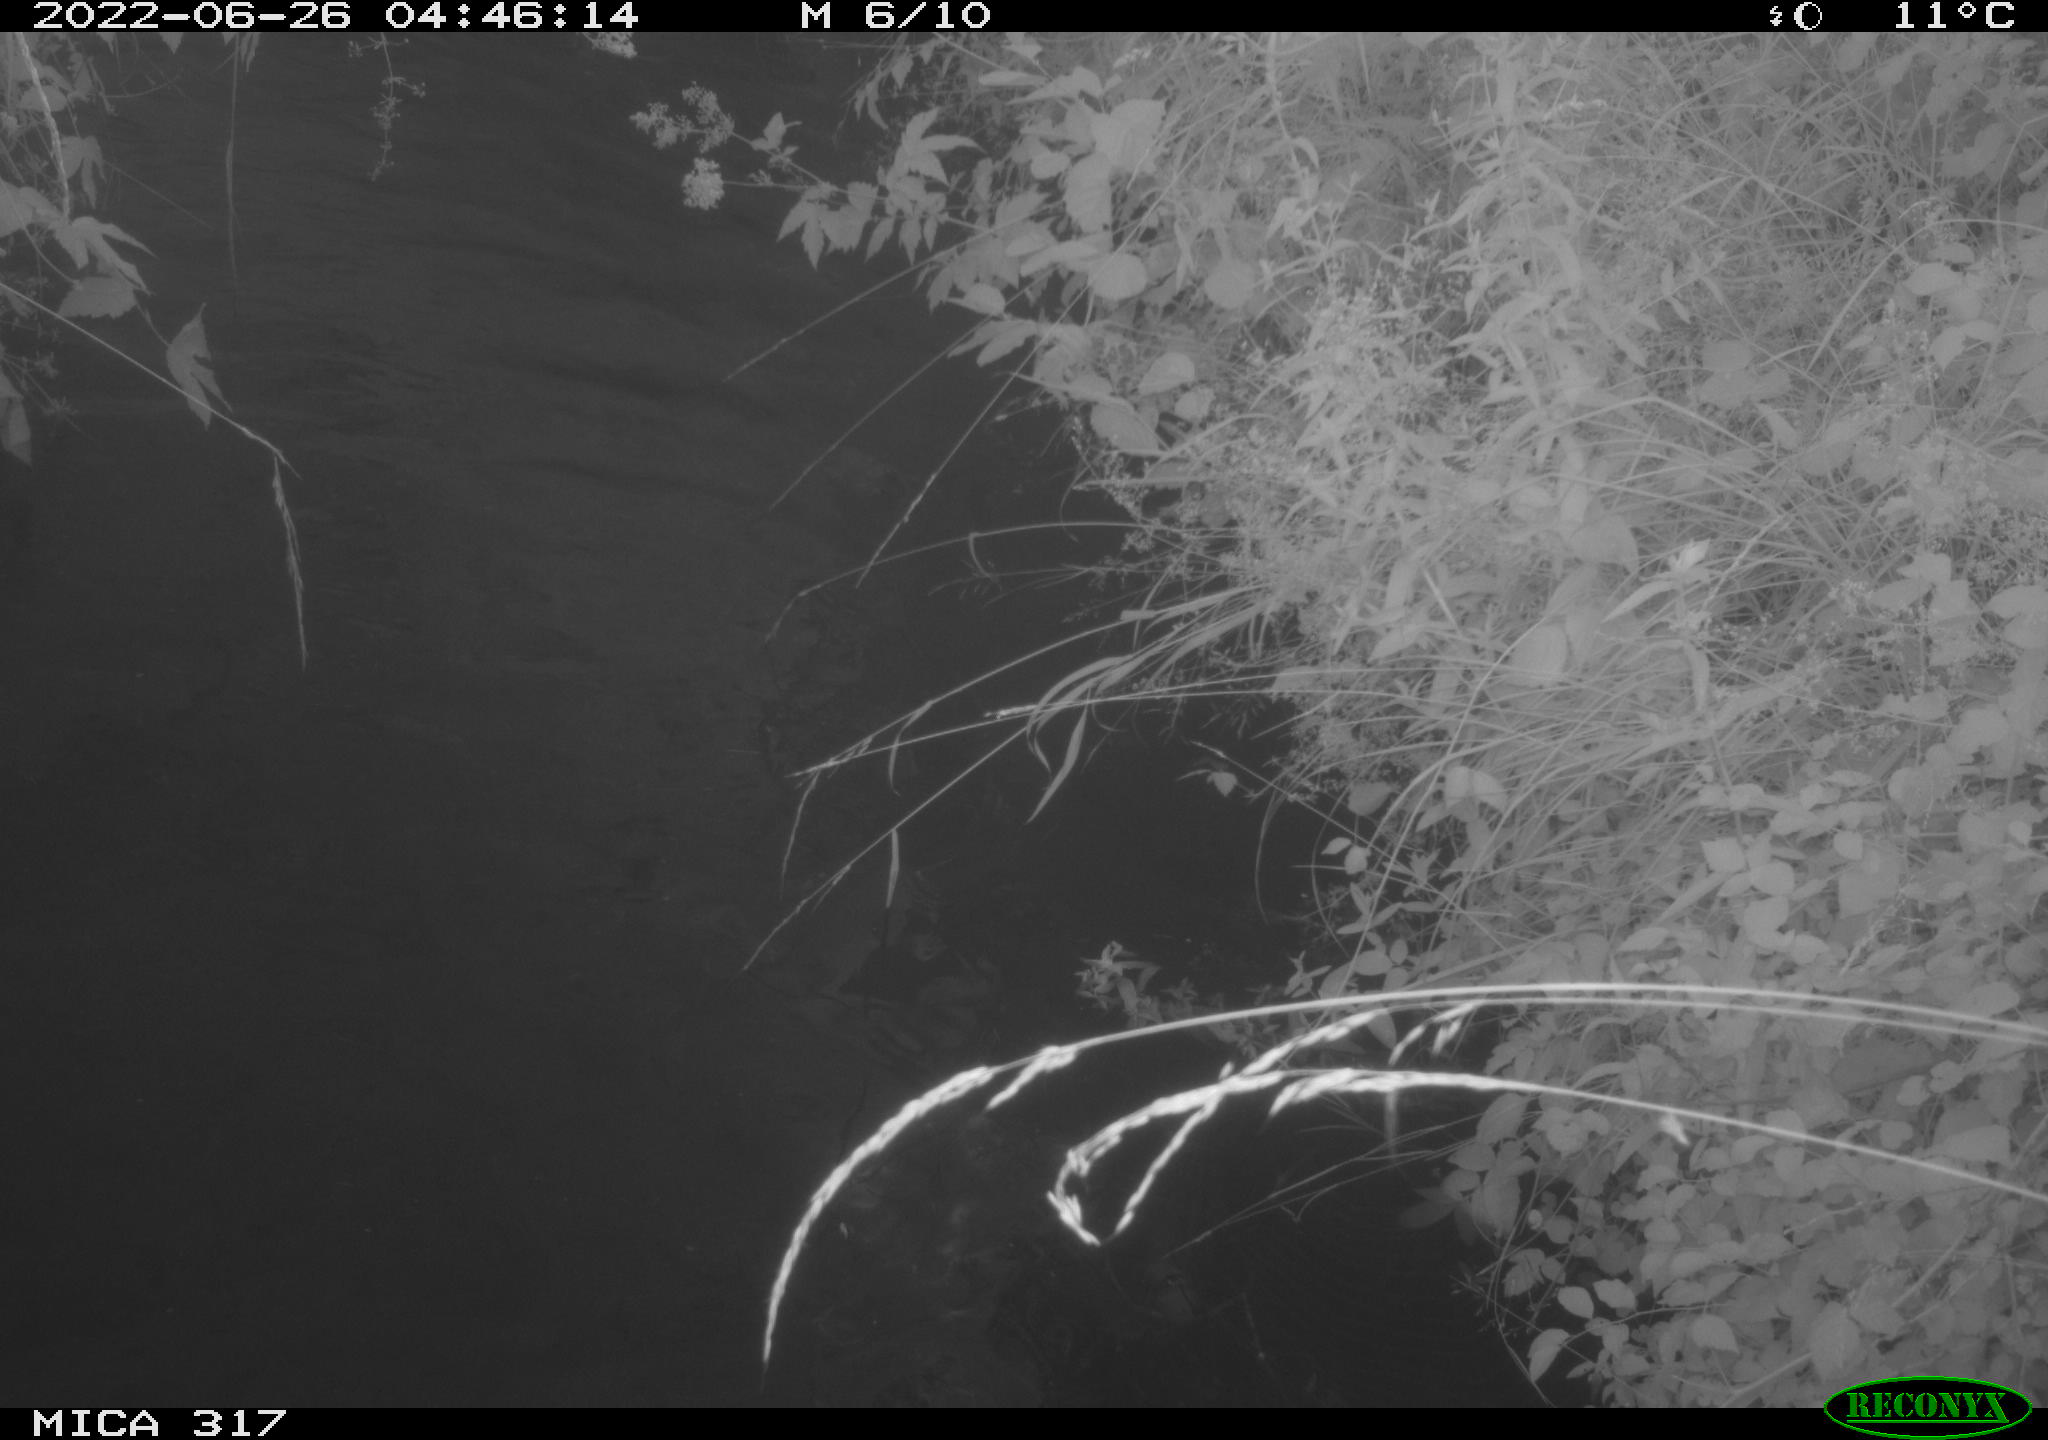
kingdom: Animalia
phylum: Chordata
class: Aves
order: Anseriformes
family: Anatidae
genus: Anas
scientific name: Anas platyrhynchos
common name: Mallard
